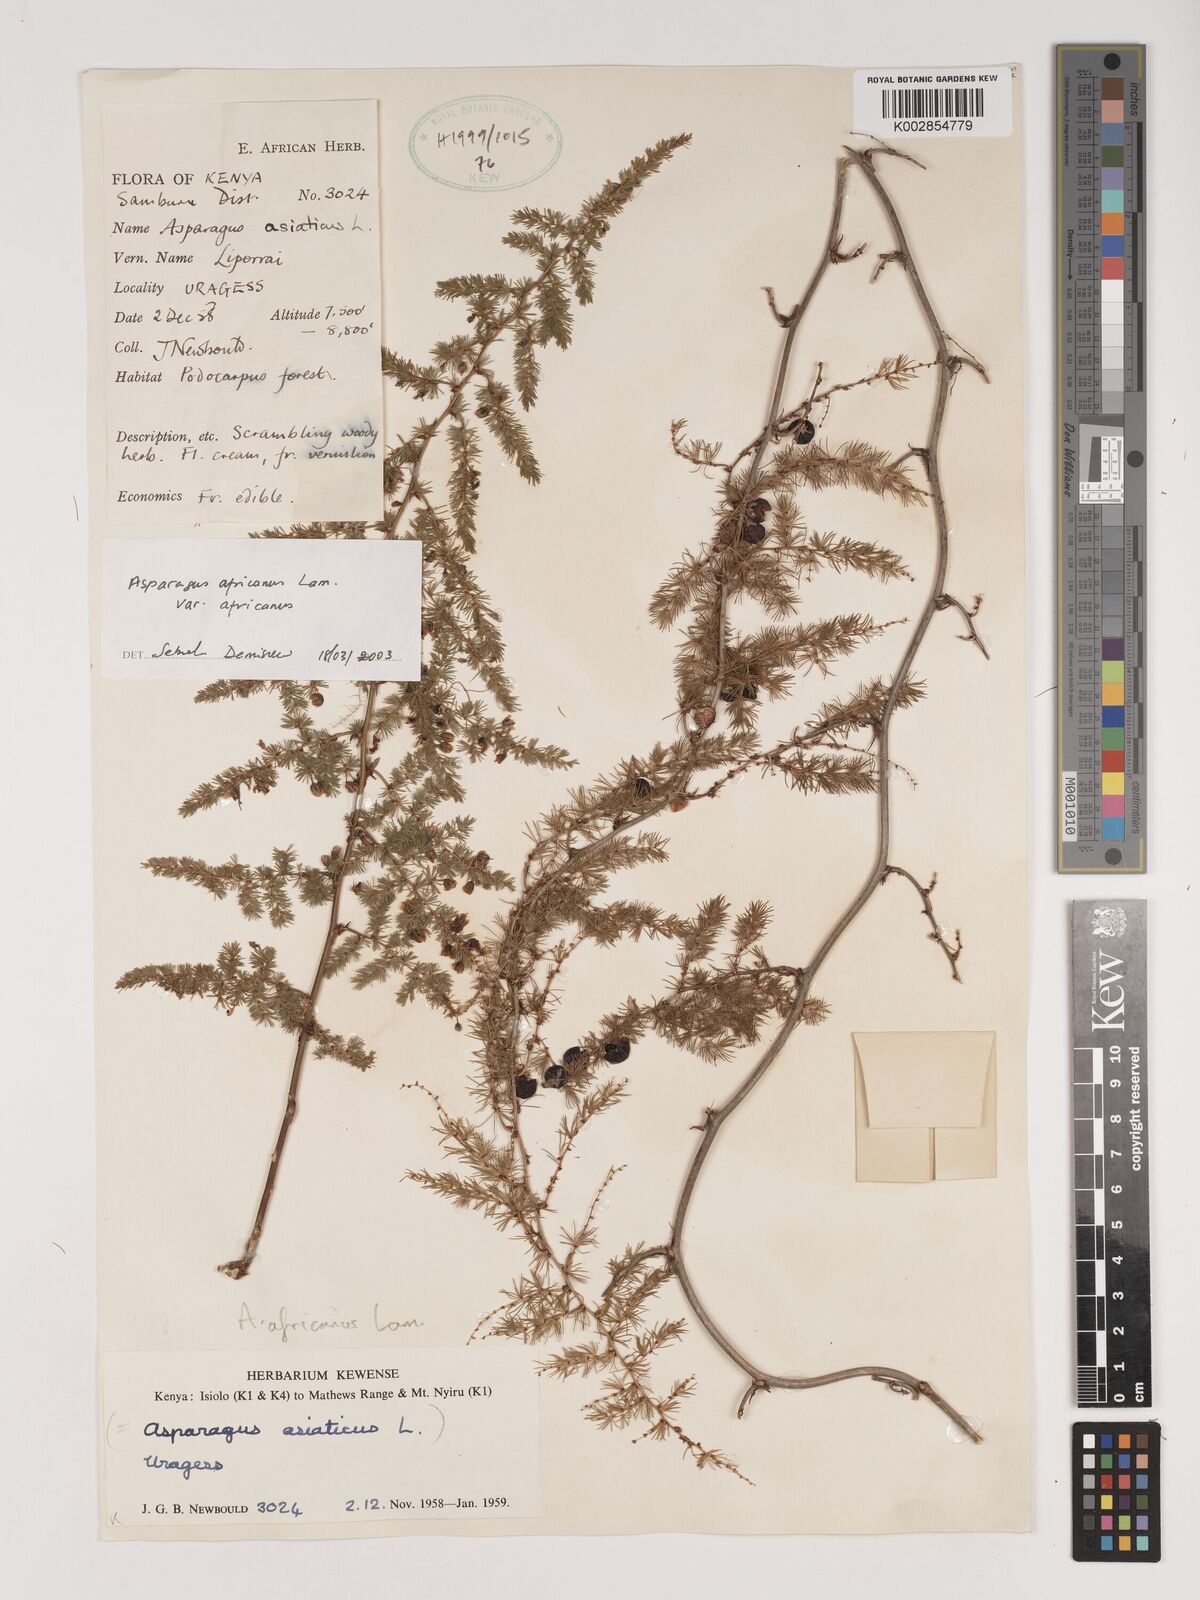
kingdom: Plantae
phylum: Tracheophyta
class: Liliopsida
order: Asparagales
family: Asparagaceae
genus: Asparagus
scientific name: Asparagus africanus
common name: Asparagus-fern
